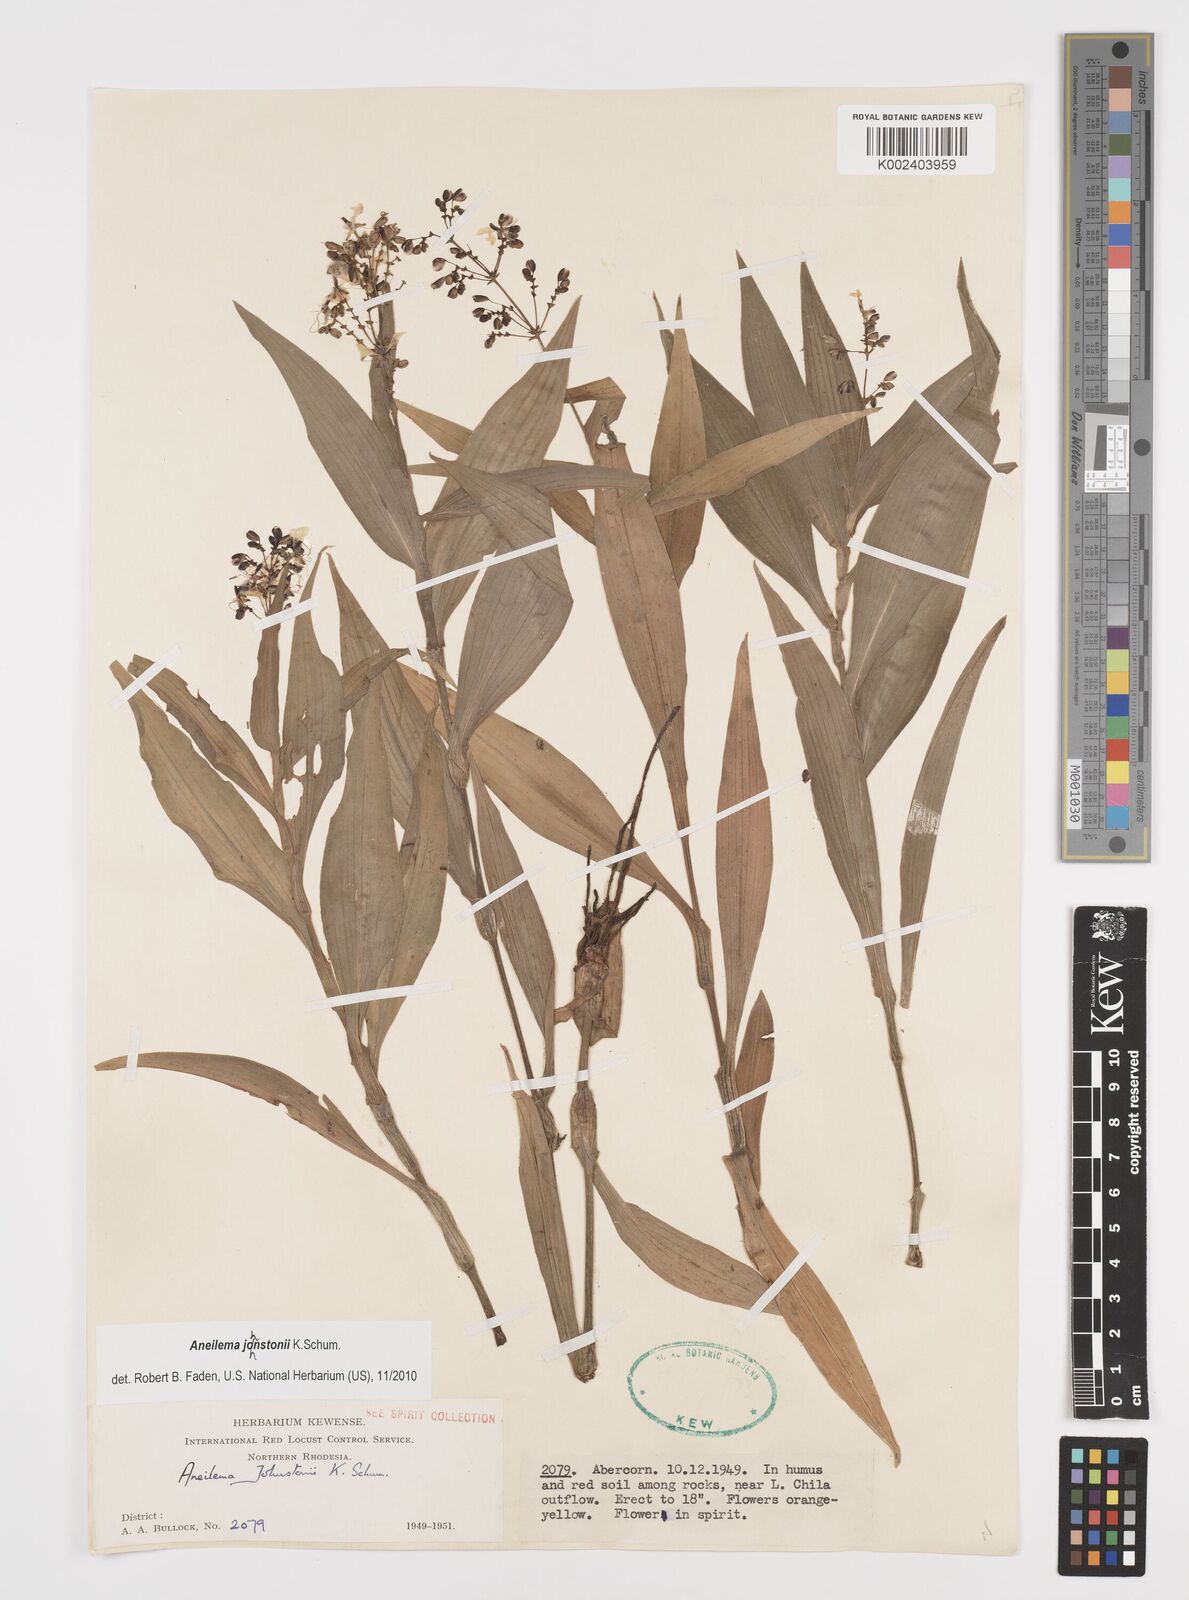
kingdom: Plantae
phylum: Tracheophyta
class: Liliopsida
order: Commelinales
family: Commelinaceae
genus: Aneilema
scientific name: Aneilema johnstonii
